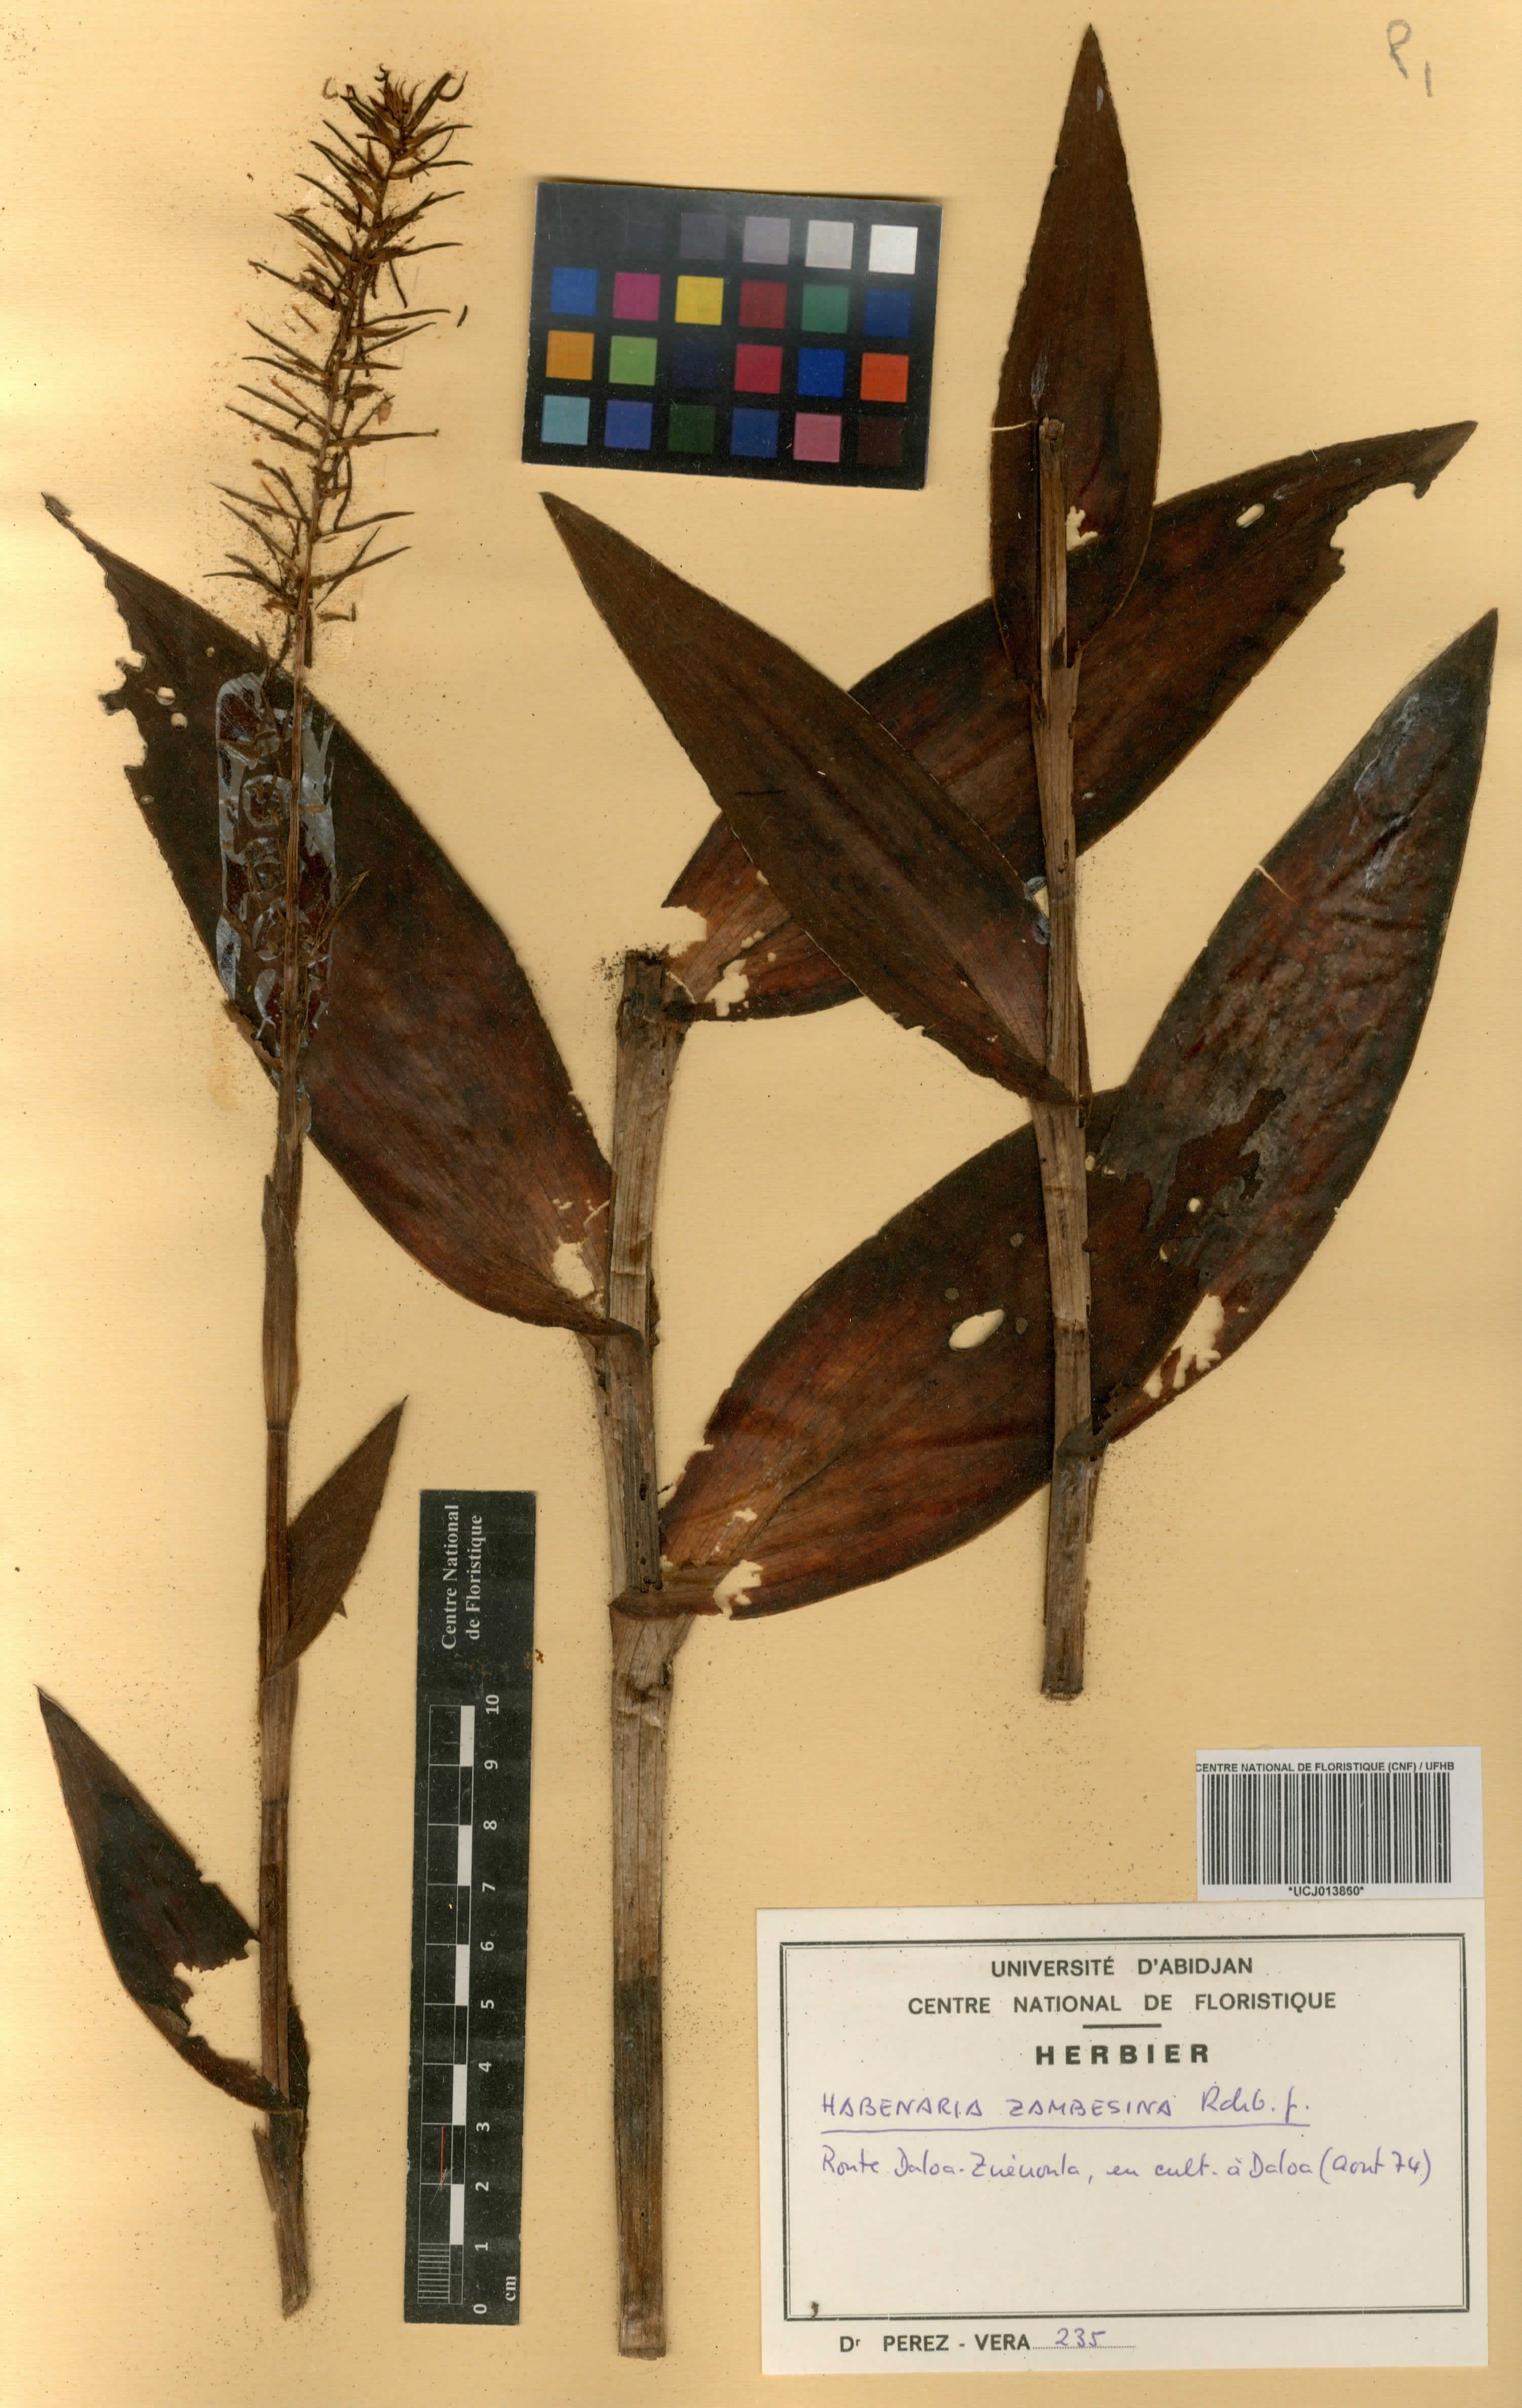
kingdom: Plantae
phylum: Tracheophyta
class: Liliopsida
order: Asparagales
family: Orchidaceae
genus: Habenaria
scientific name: Habenaria zambesina
